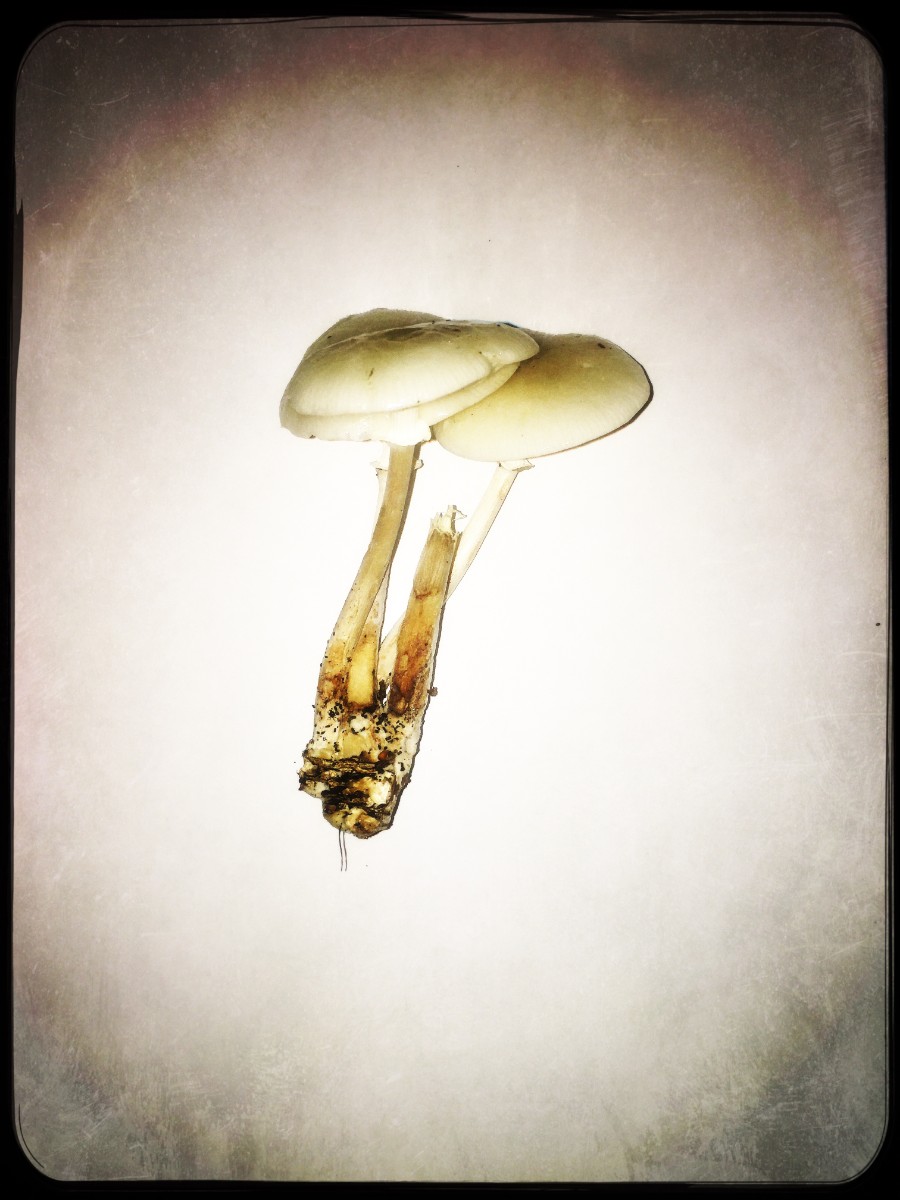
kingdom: Fungi
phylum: Basidiomycota
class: Agaricomycetes
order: Agaricales
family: Physalacriaceae
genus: Mucidula
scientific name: Mucidula mucida
